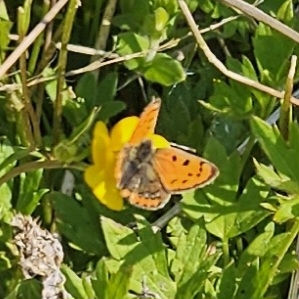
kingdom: Animalia
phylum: Arthropoda
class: Insecta
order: Lepidoptera
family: Lycaenidae
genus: Lycaena
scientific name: Lycaena phlaeas
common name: Lille ildfugl
